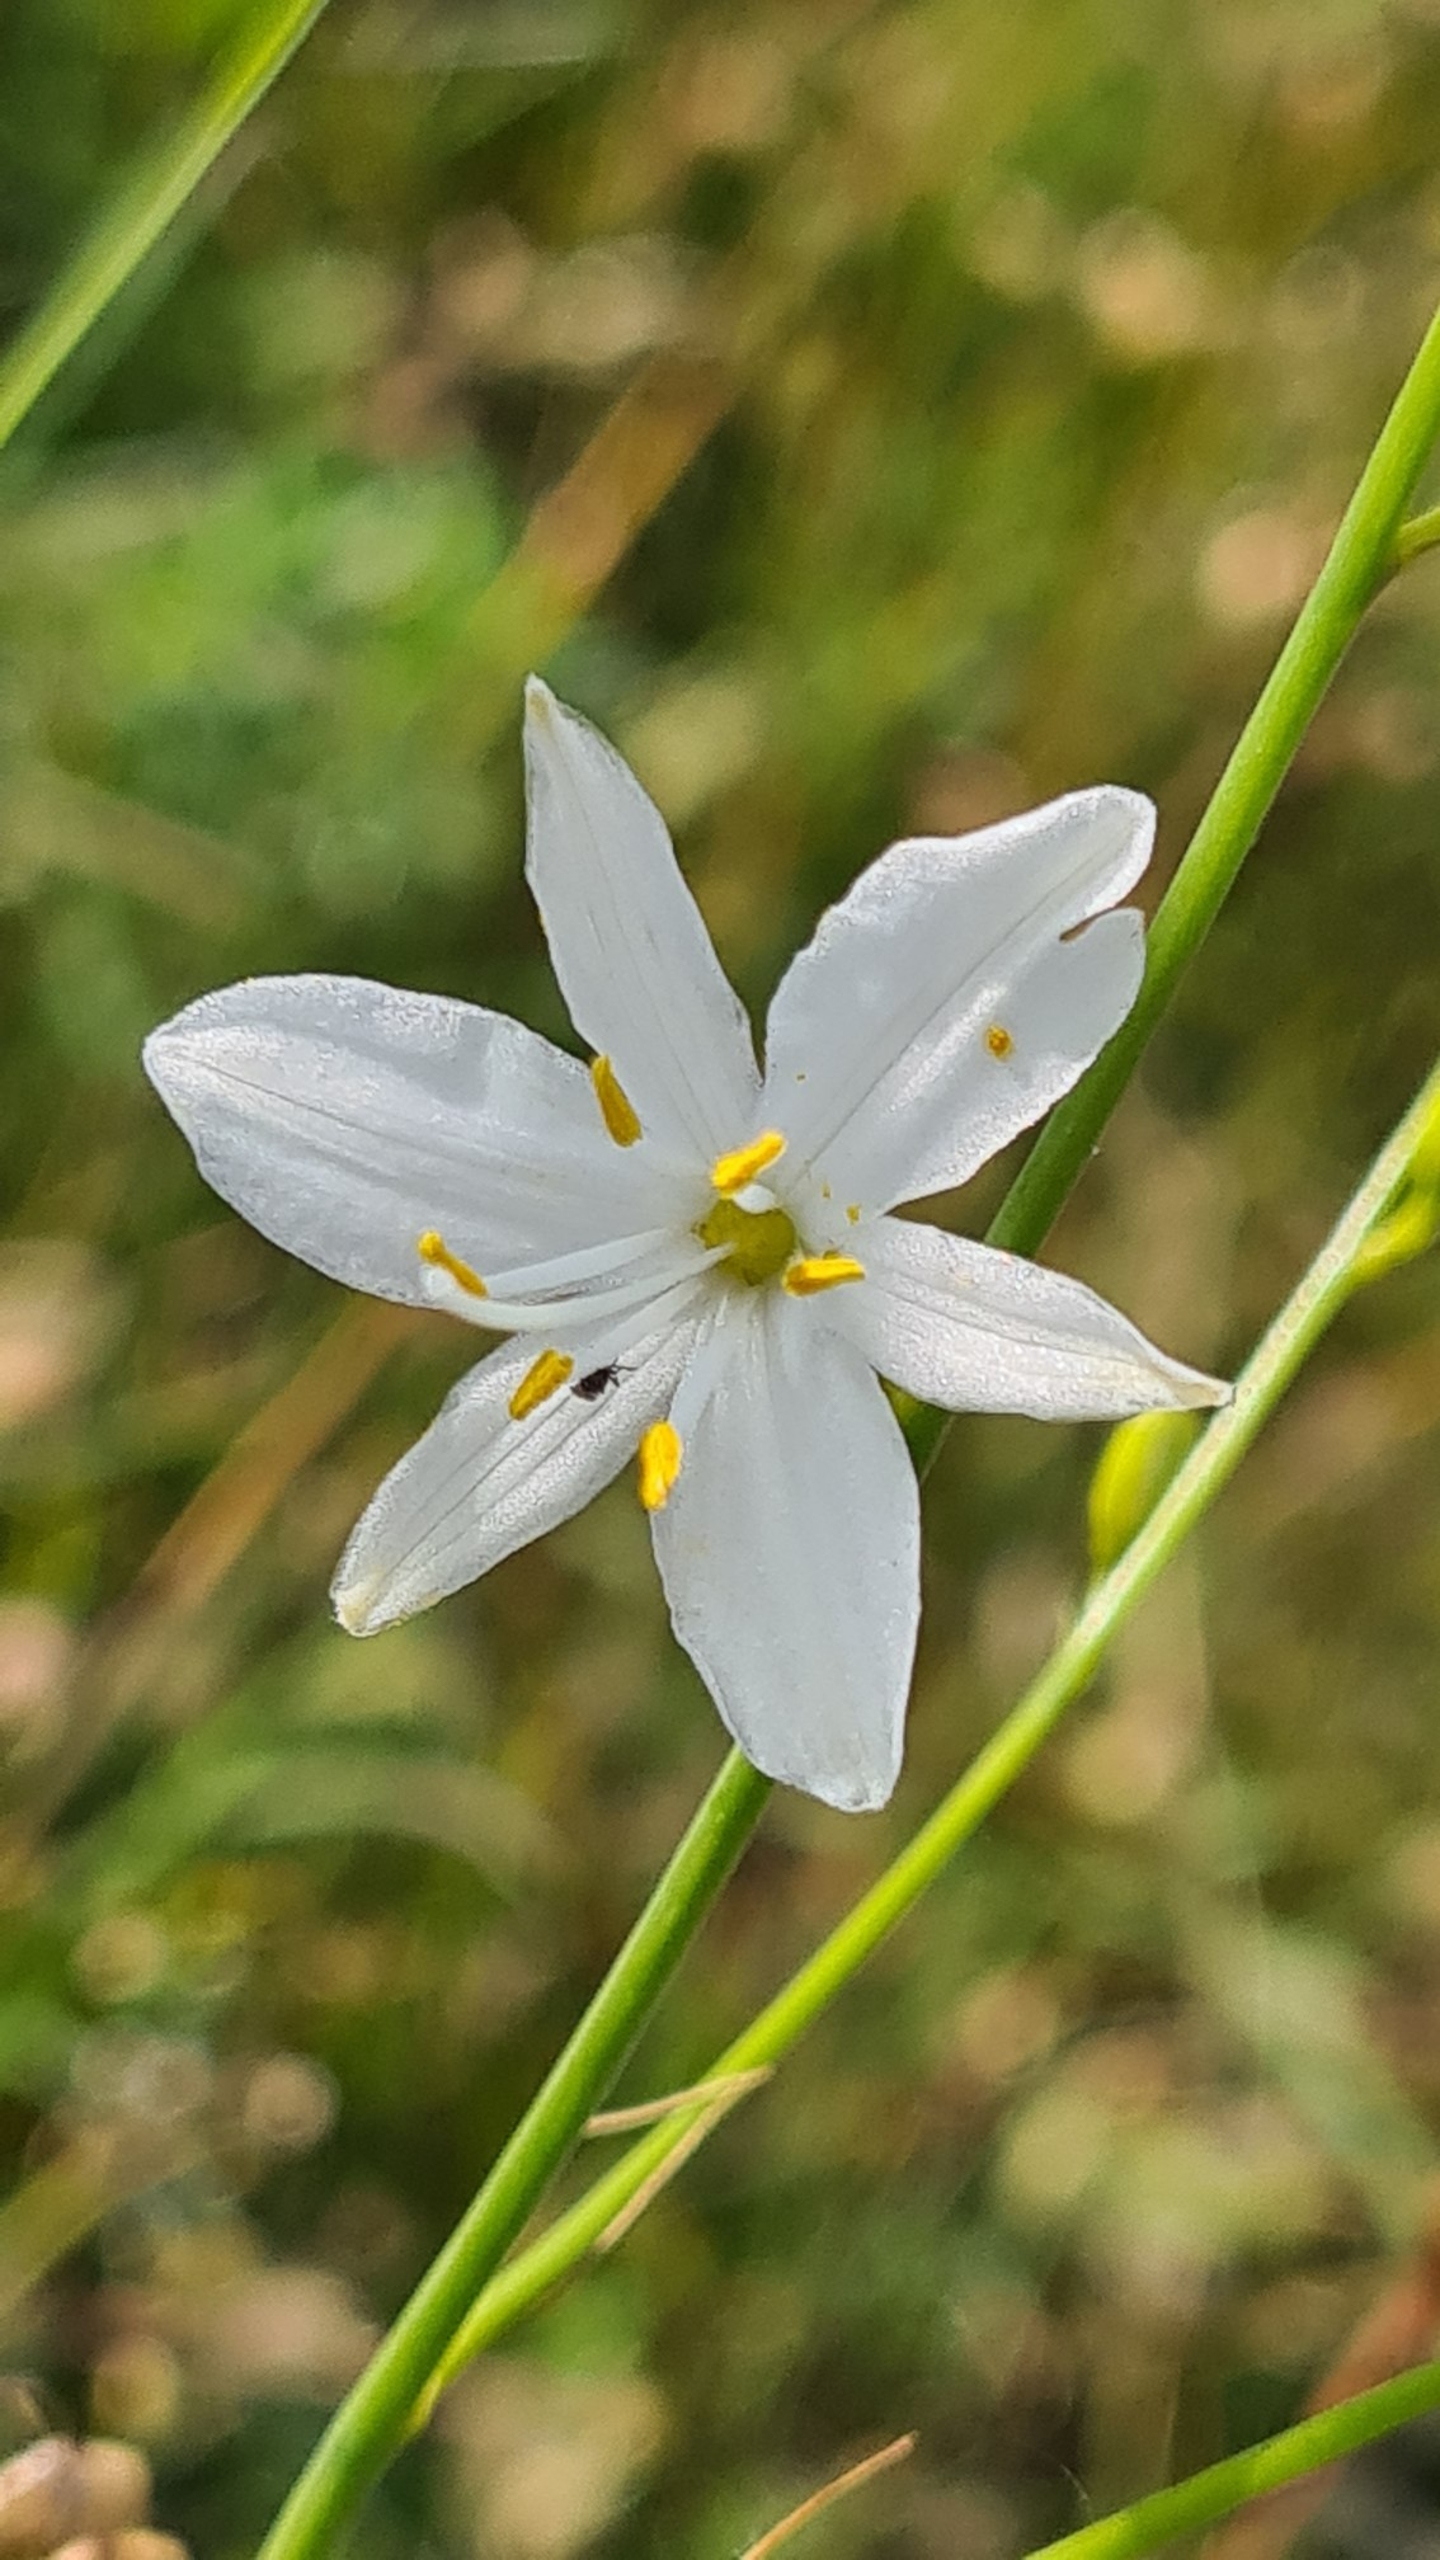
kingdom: Plantae
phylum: Tracheophyta
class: Liliopsida
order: Asparagales
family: Asparagaceae
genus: Anthericum
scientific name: Anthericum ramosum
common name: Grenet edderkopurt
